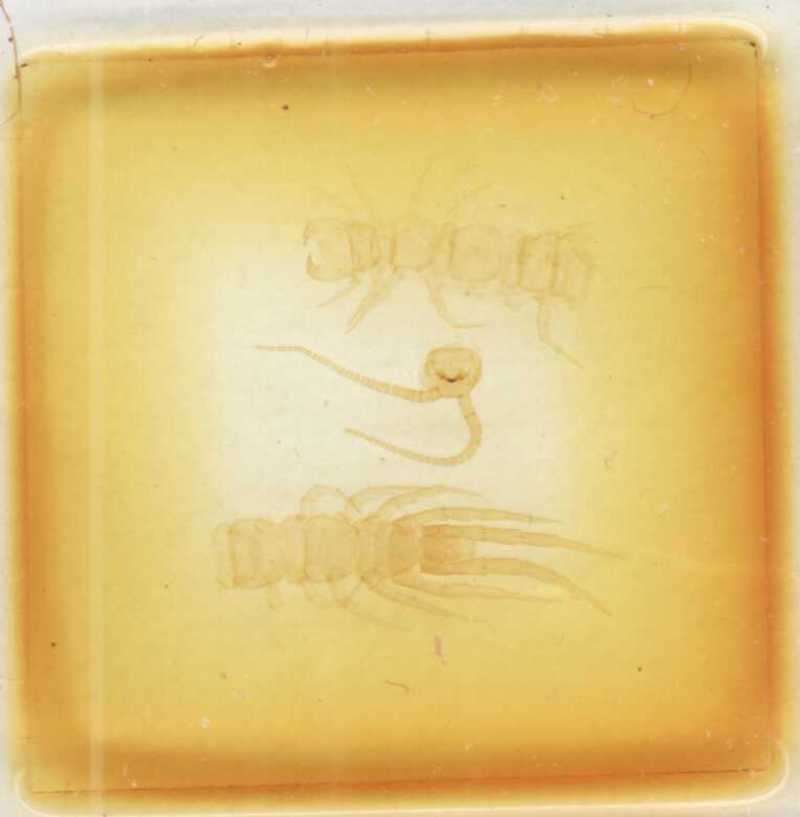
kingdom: Animalia
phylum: Arthropoda
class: Chilopoda
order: Lithobiomorpha
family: Lithobiidae
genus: Lithobius
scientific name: Lithobius lusitanus
